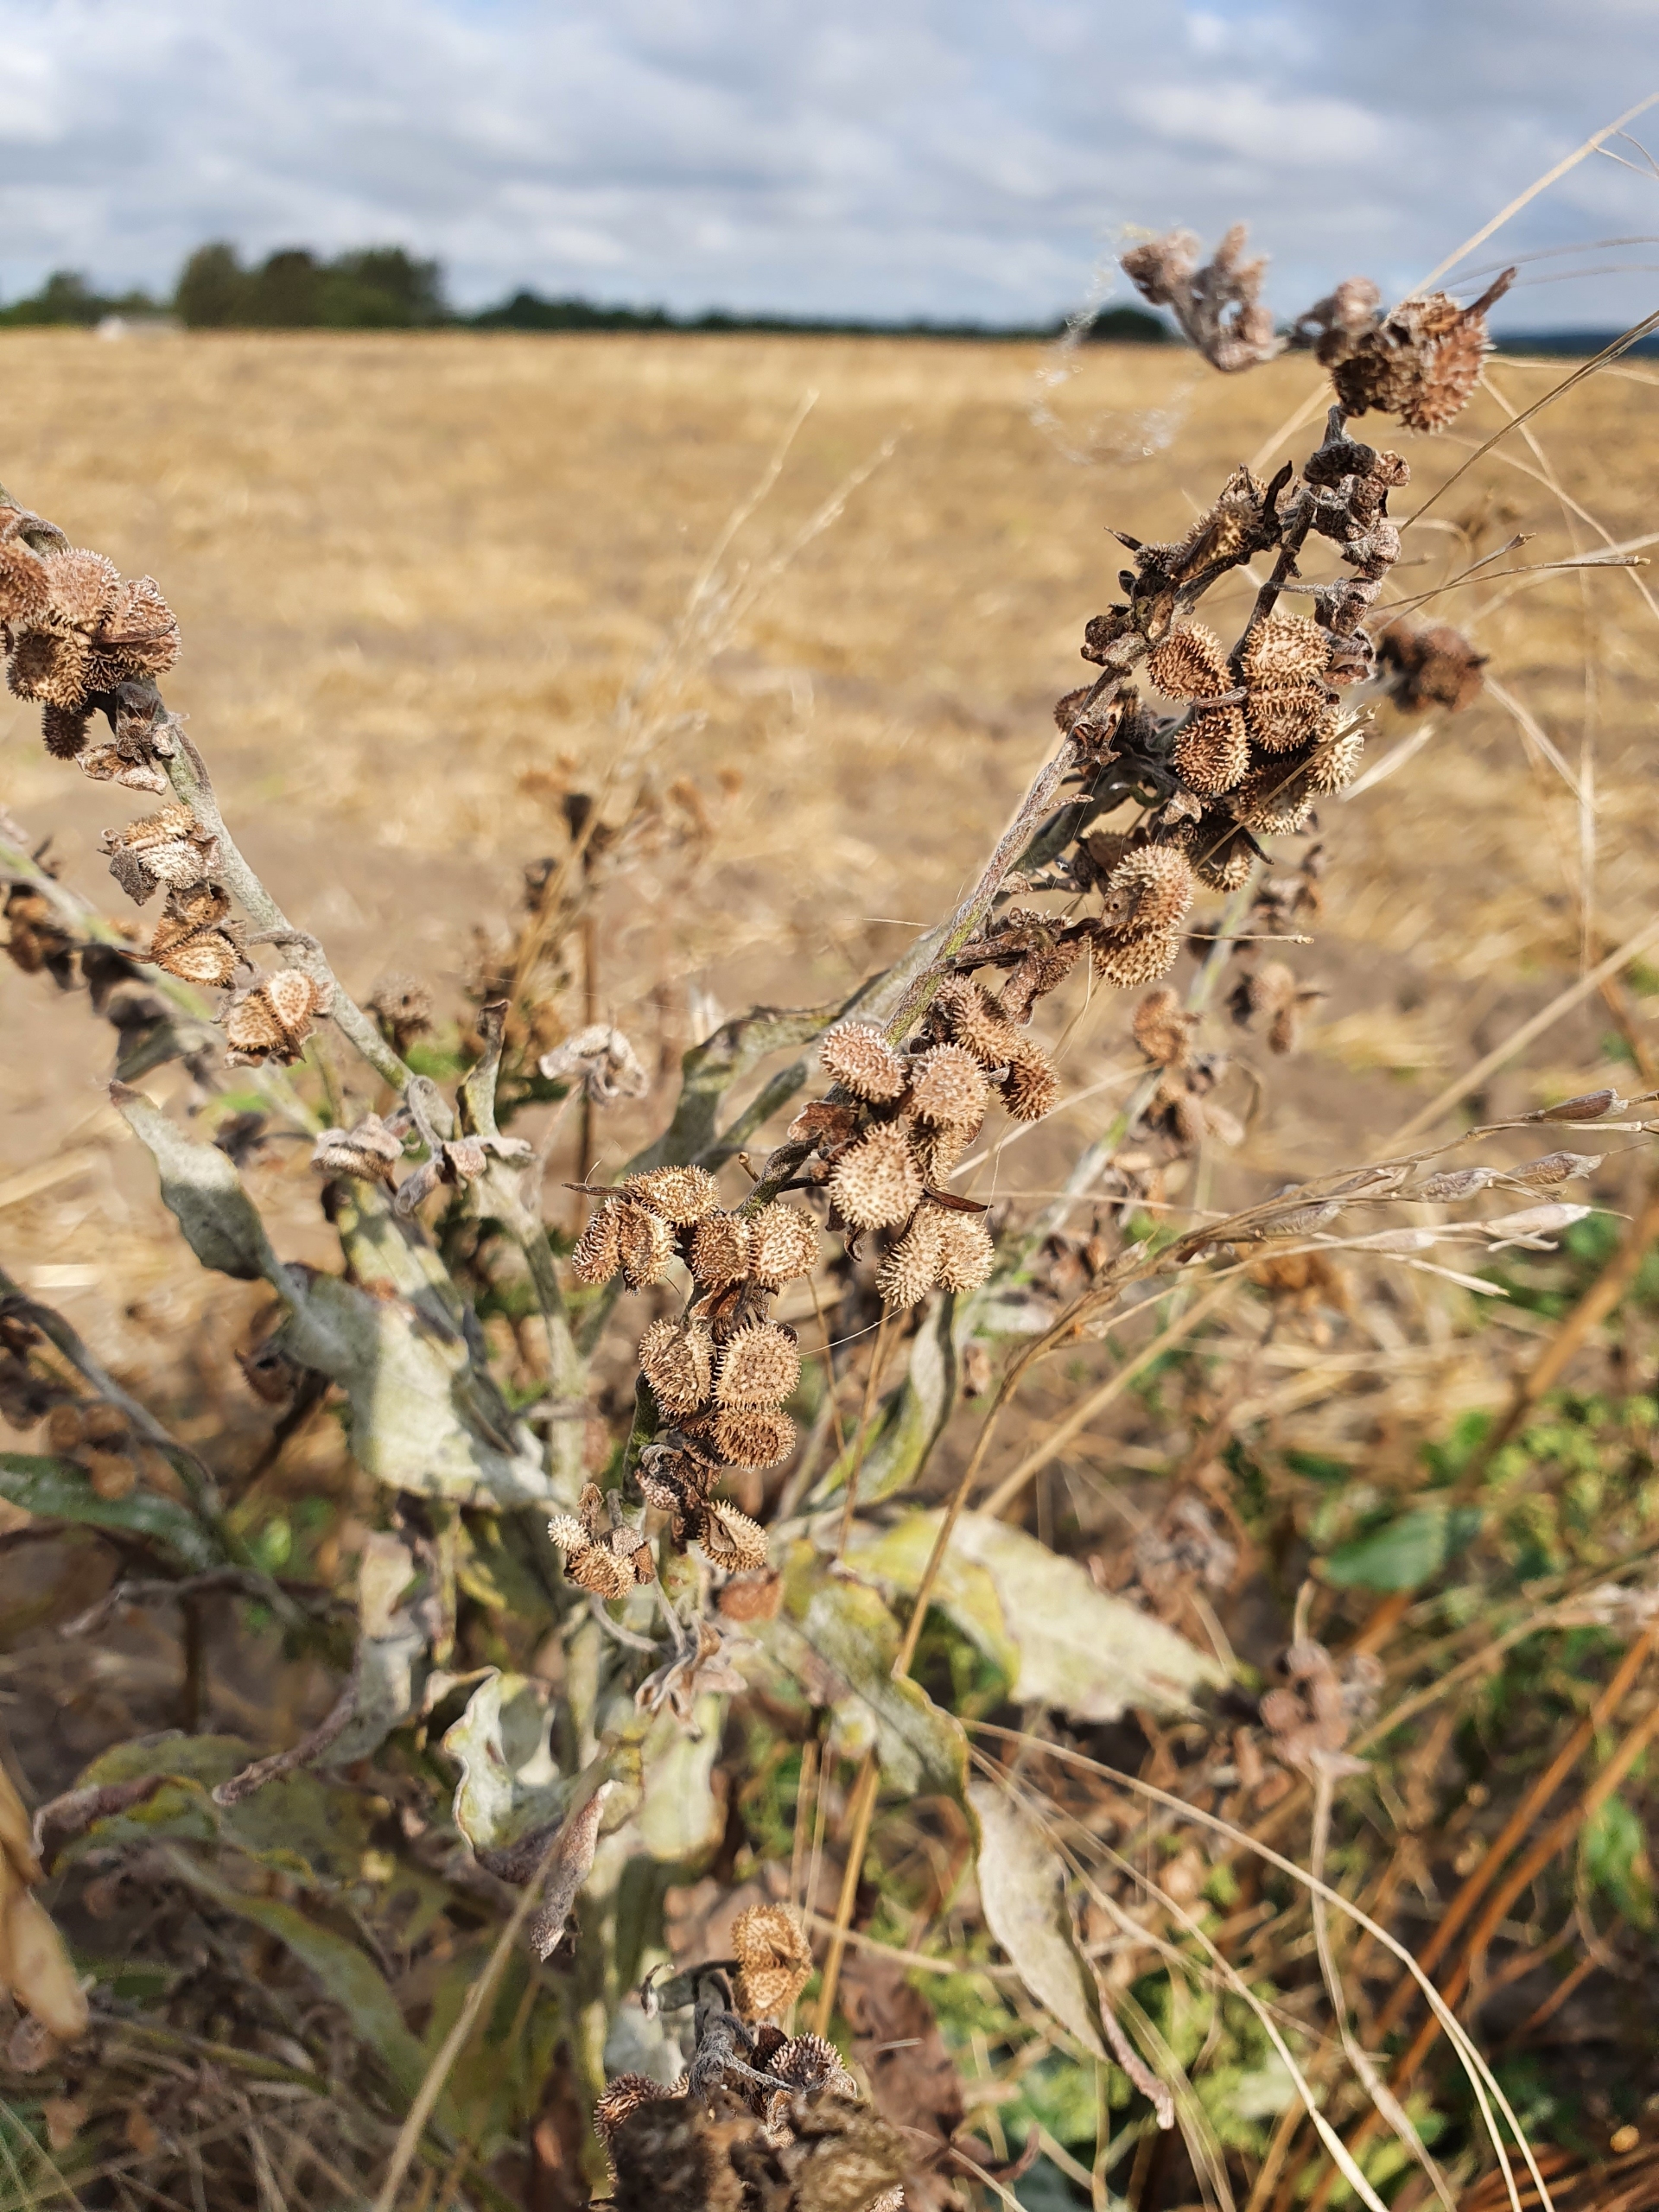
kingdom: Plantae
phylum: Tracheophyta
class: Magnoliopsida
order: Boraginales
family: Boraginaceae
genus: Cynoglossum
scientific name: Cynoglossum officinale
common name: Hundetunge
